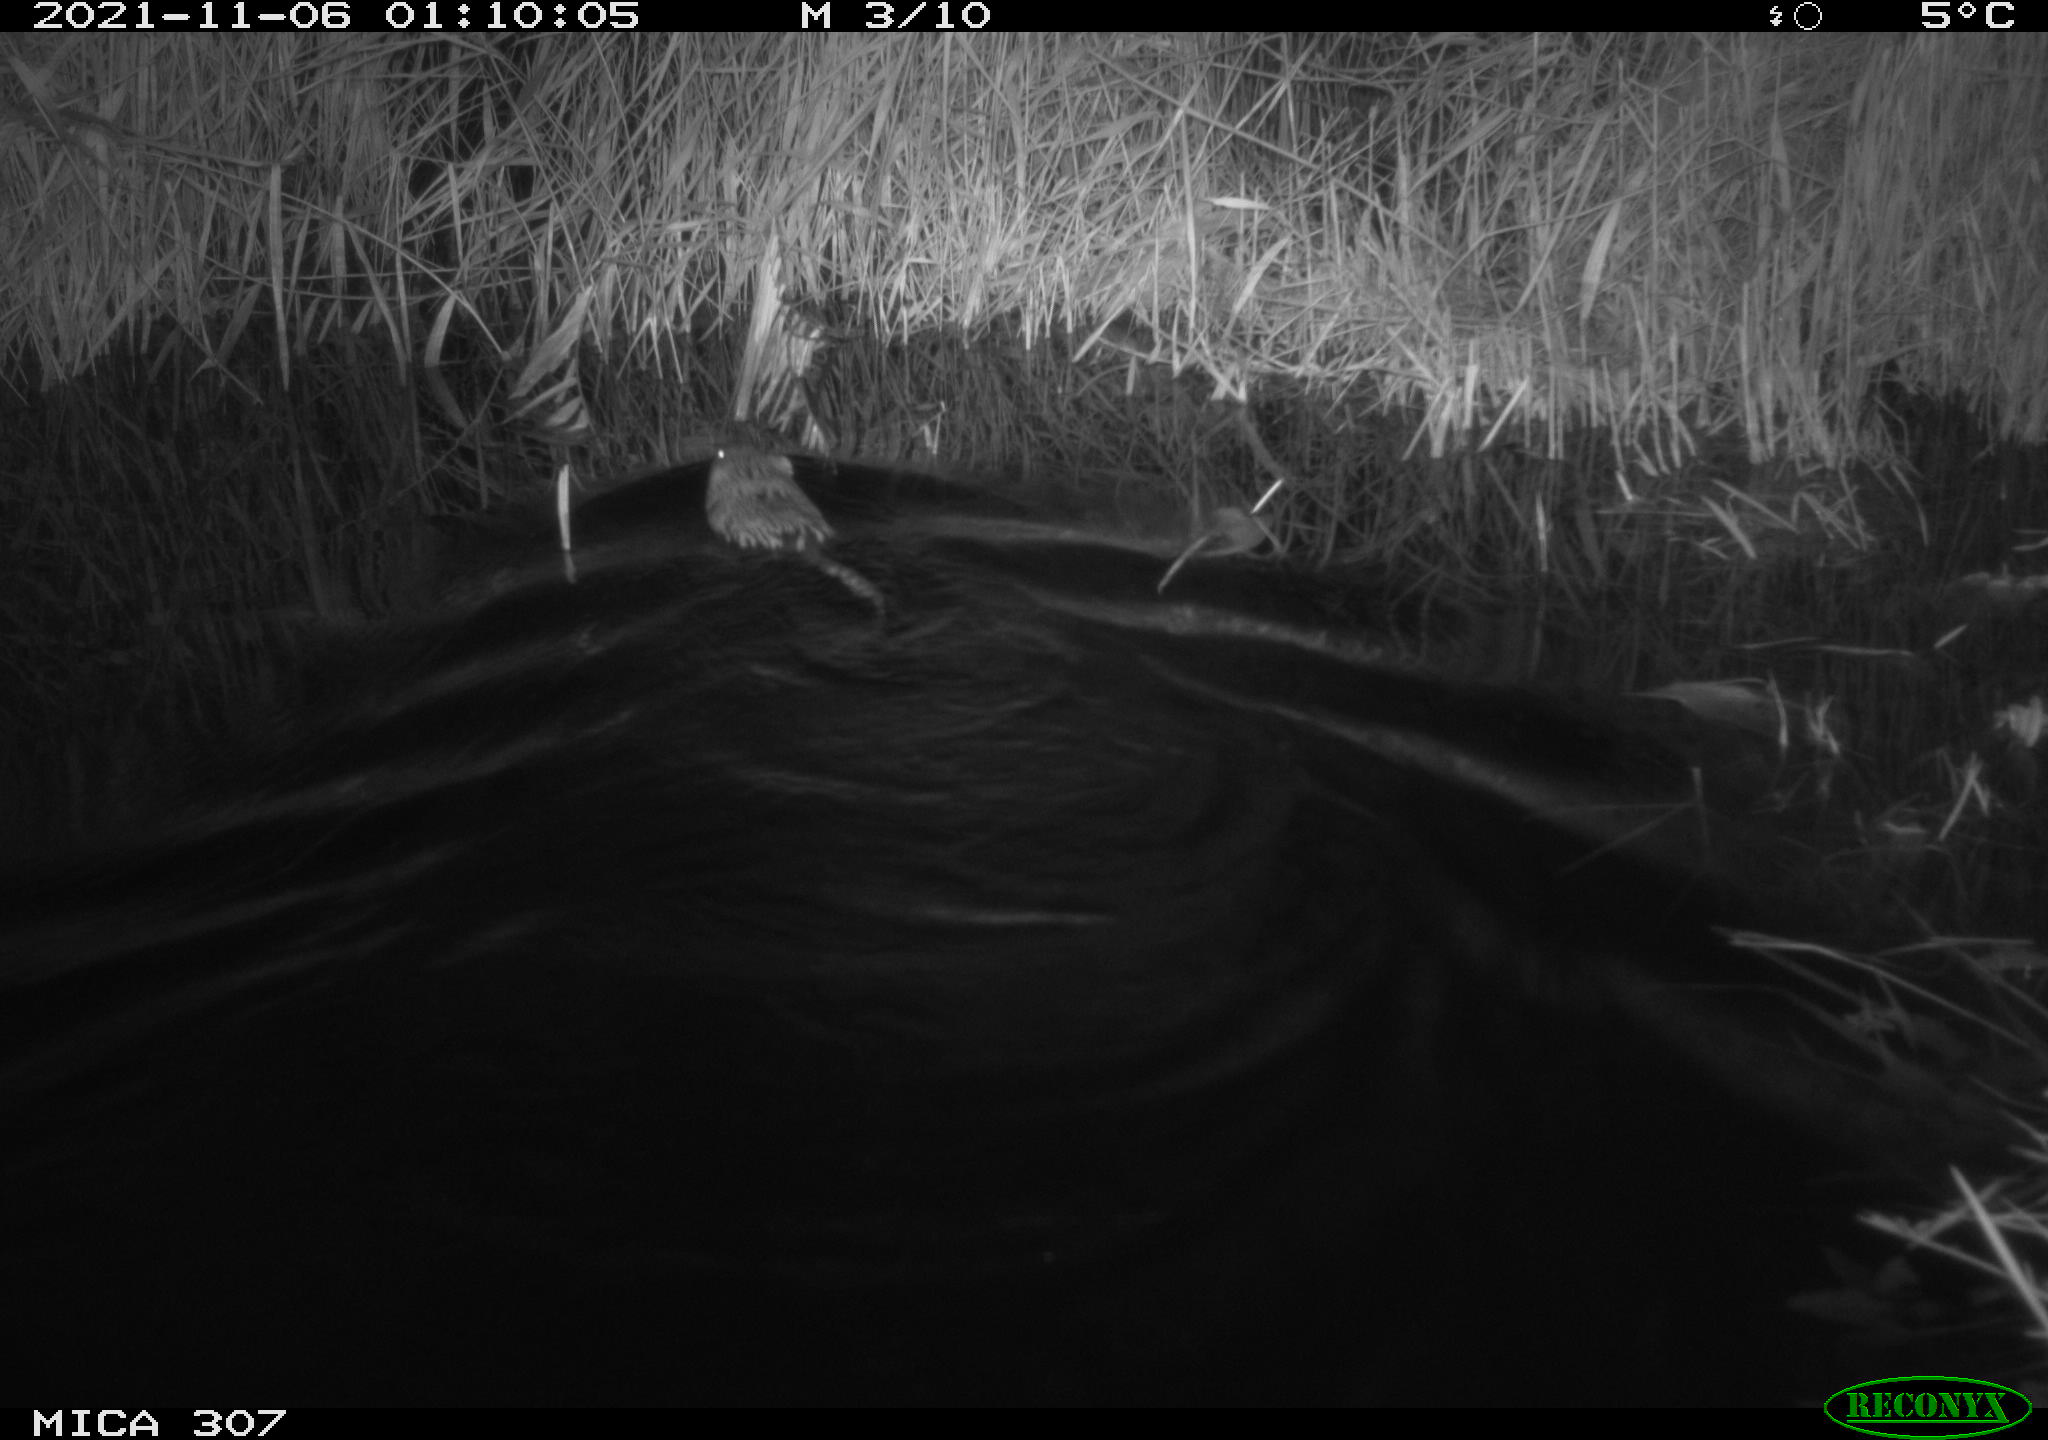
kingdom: Animalia
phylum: Chordata
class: Mammalia
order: Rodentia
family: Cricetidae
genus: Ondatra
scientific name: Ondatra zibethicus
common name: Muskrat
